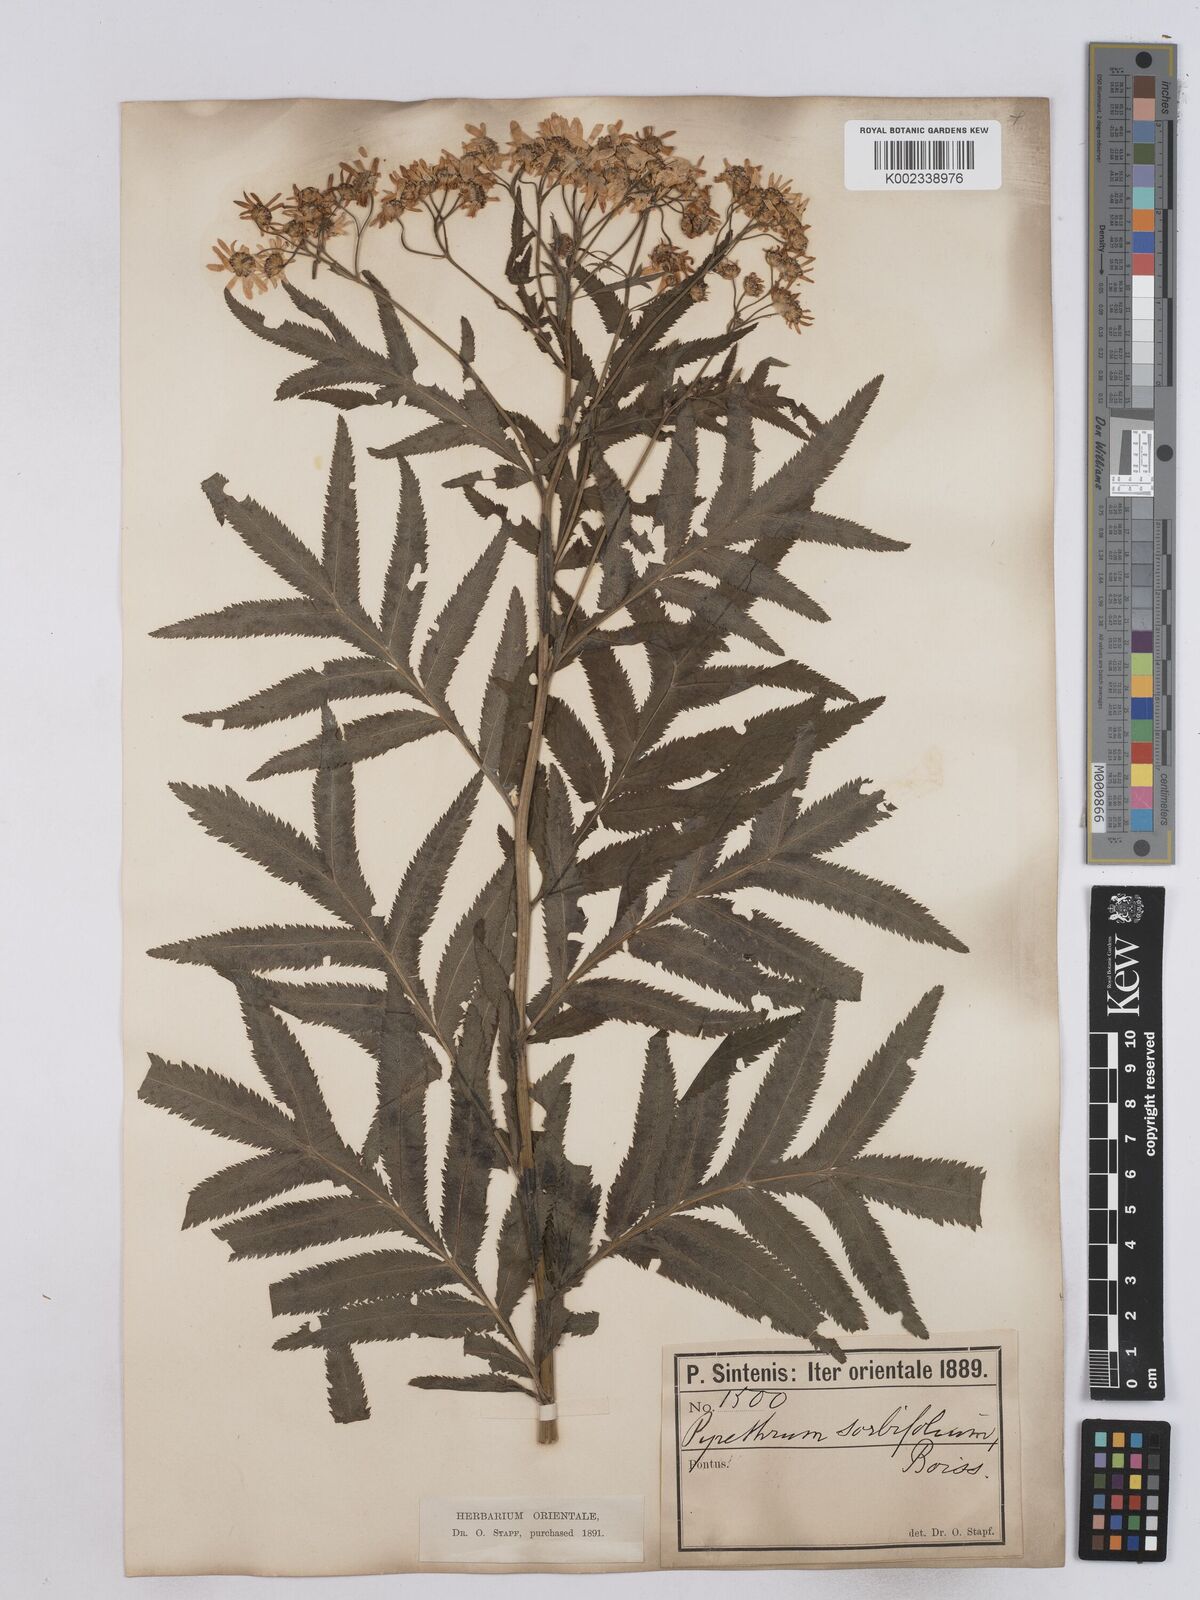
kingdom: Plantae
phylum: Tracheophyta
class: Magnoliopsida
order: Asterales
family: Asteraceae
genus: Tanacetum
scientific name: Tanacetum sorbifolium
